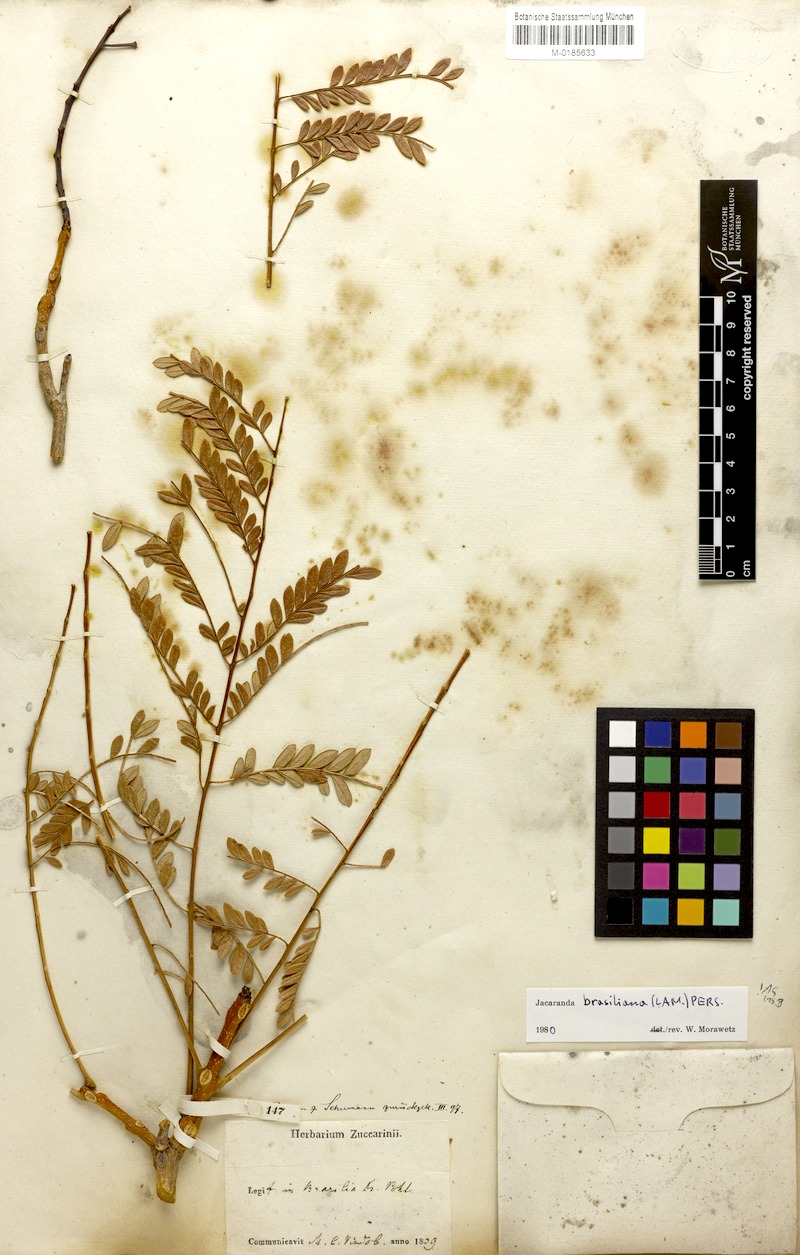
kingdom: Plantae
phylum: Tracheophyta
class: Magnoliopsida
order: Lamiales
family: Bignoniaceae
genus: Jacaranda
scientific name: Jacaranda brasiliana
